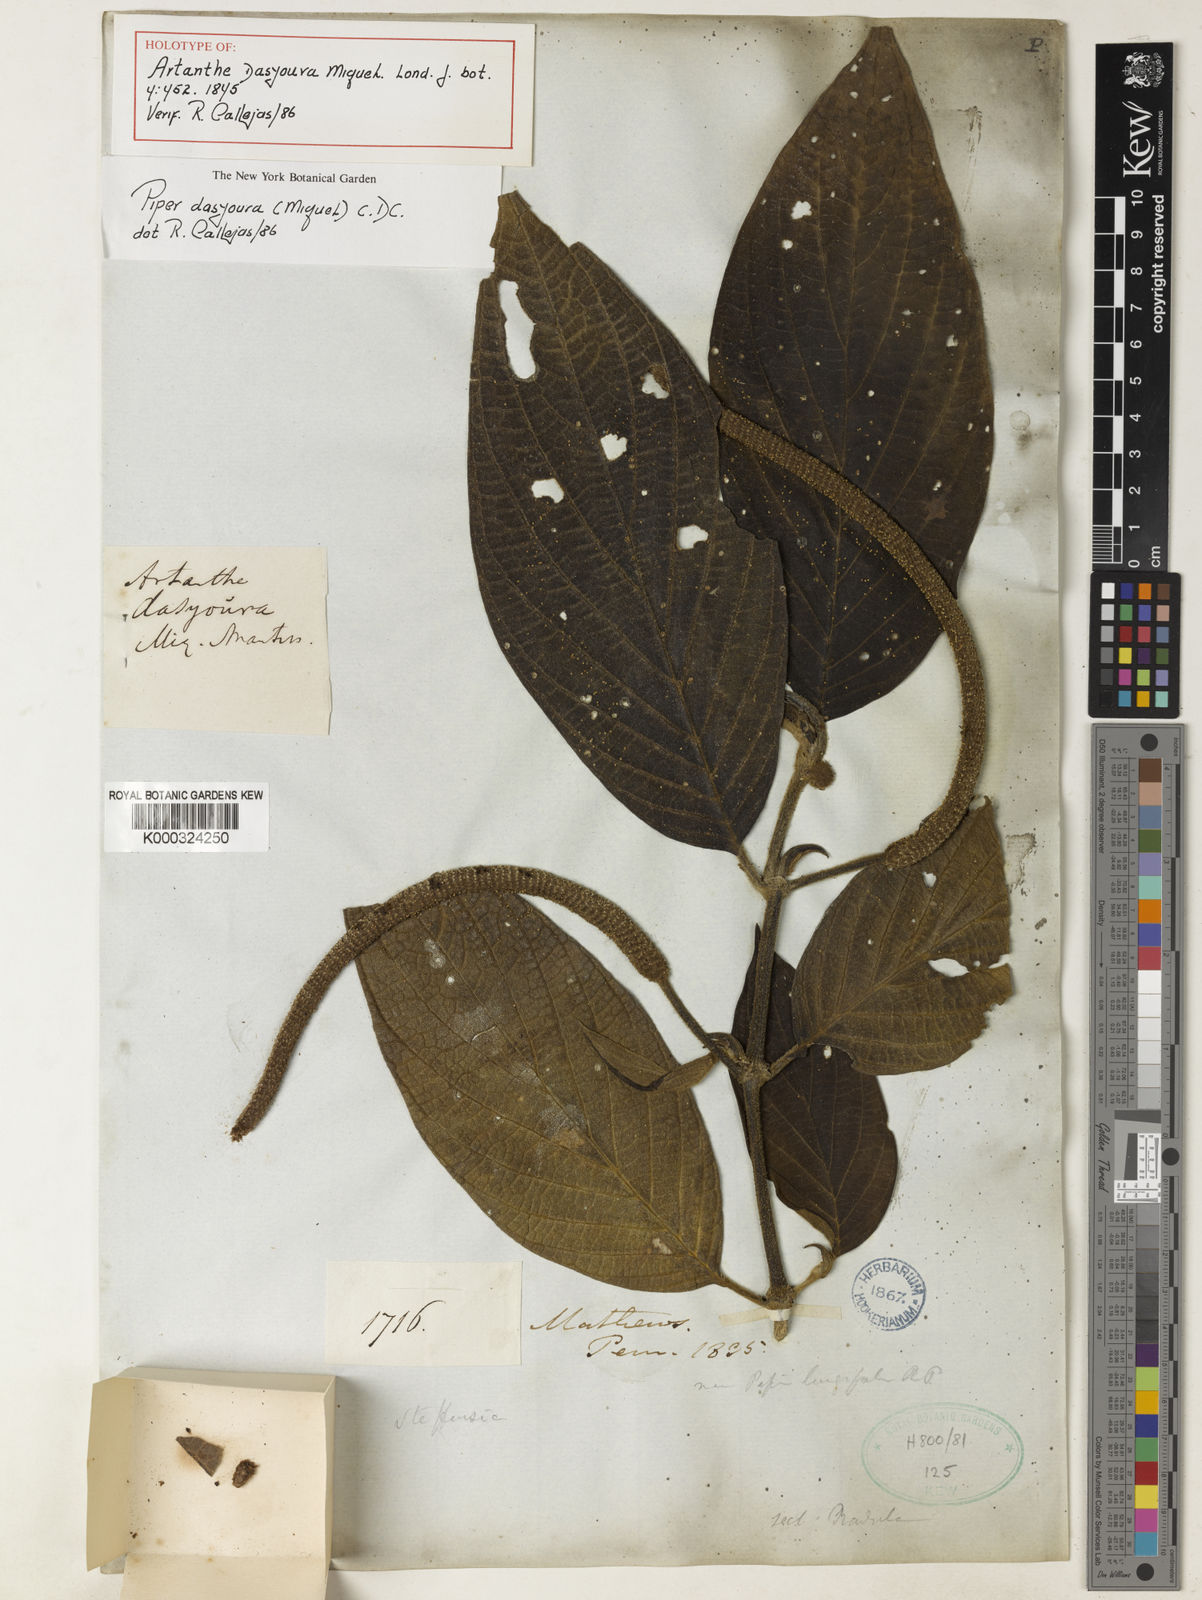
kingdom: Plantae
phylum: Tracheophyta
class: Magnoliopsida
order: Piperales
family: Piperaceae
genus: Piper
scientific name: Piper dasyoura
